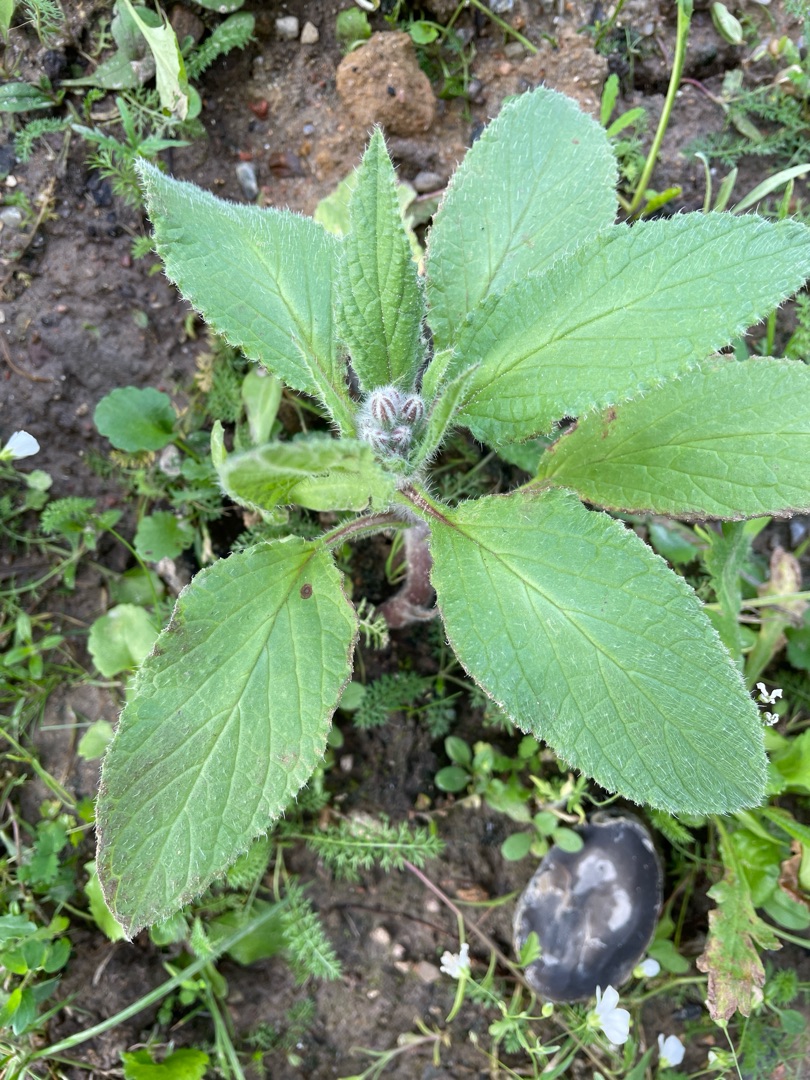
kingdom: Plantae
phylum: Tracheophyta
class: Magnoliopsida
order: Boraginales
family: Boraginaceae
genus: Borago
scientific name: Borago officinalis
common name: Hjulkrone
